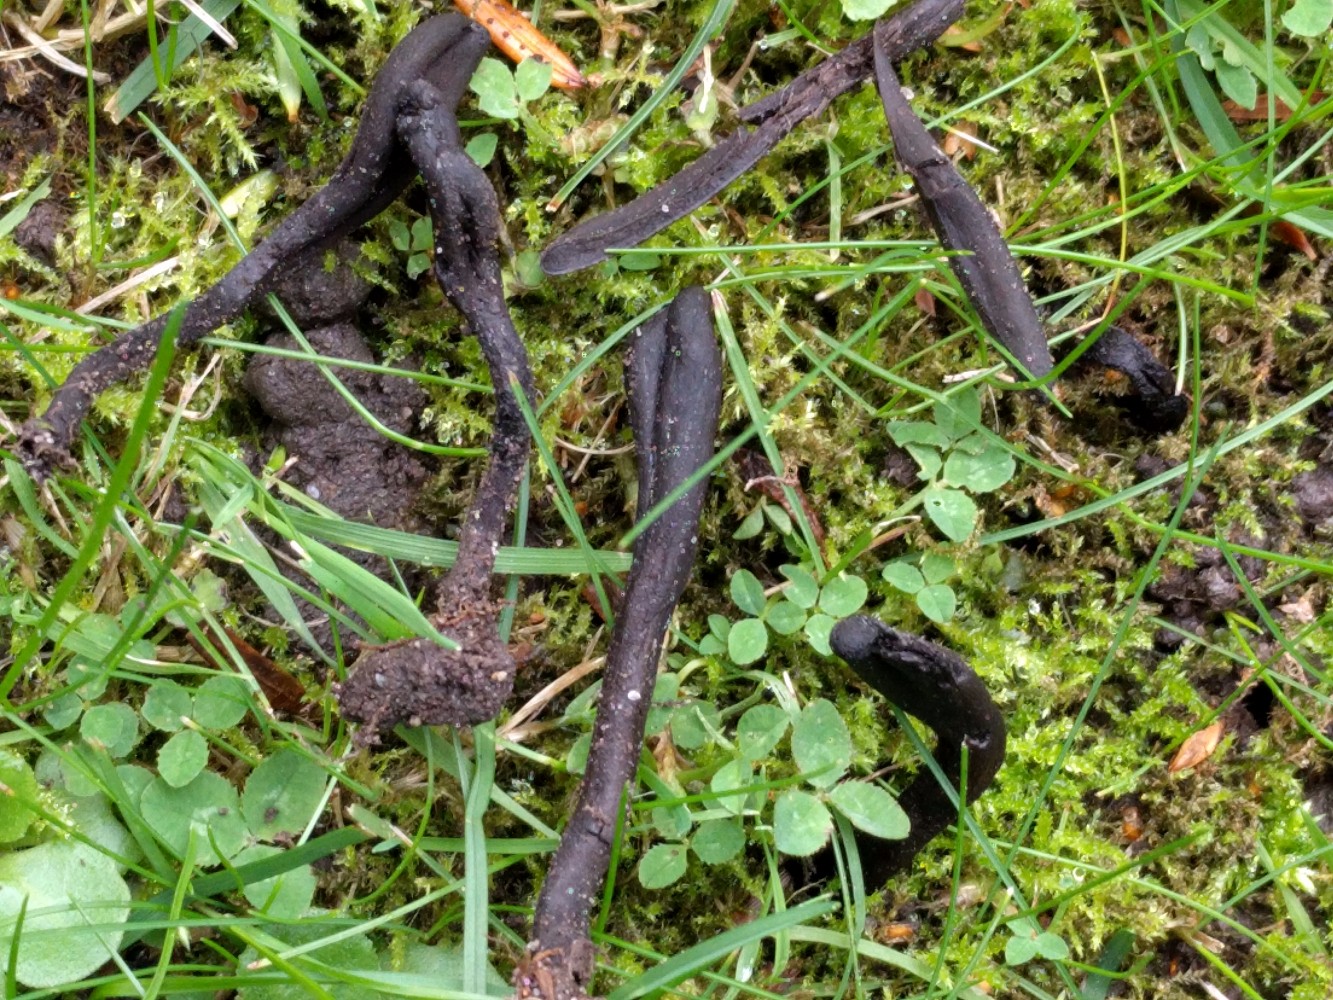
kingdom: Fungi
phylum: Ascomycota
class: Geoglossomycetes
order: Geoglossales
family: Geoglossaceae
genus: Geoglossum
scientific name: Geoglossum umbratile
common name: slank jordtunge
